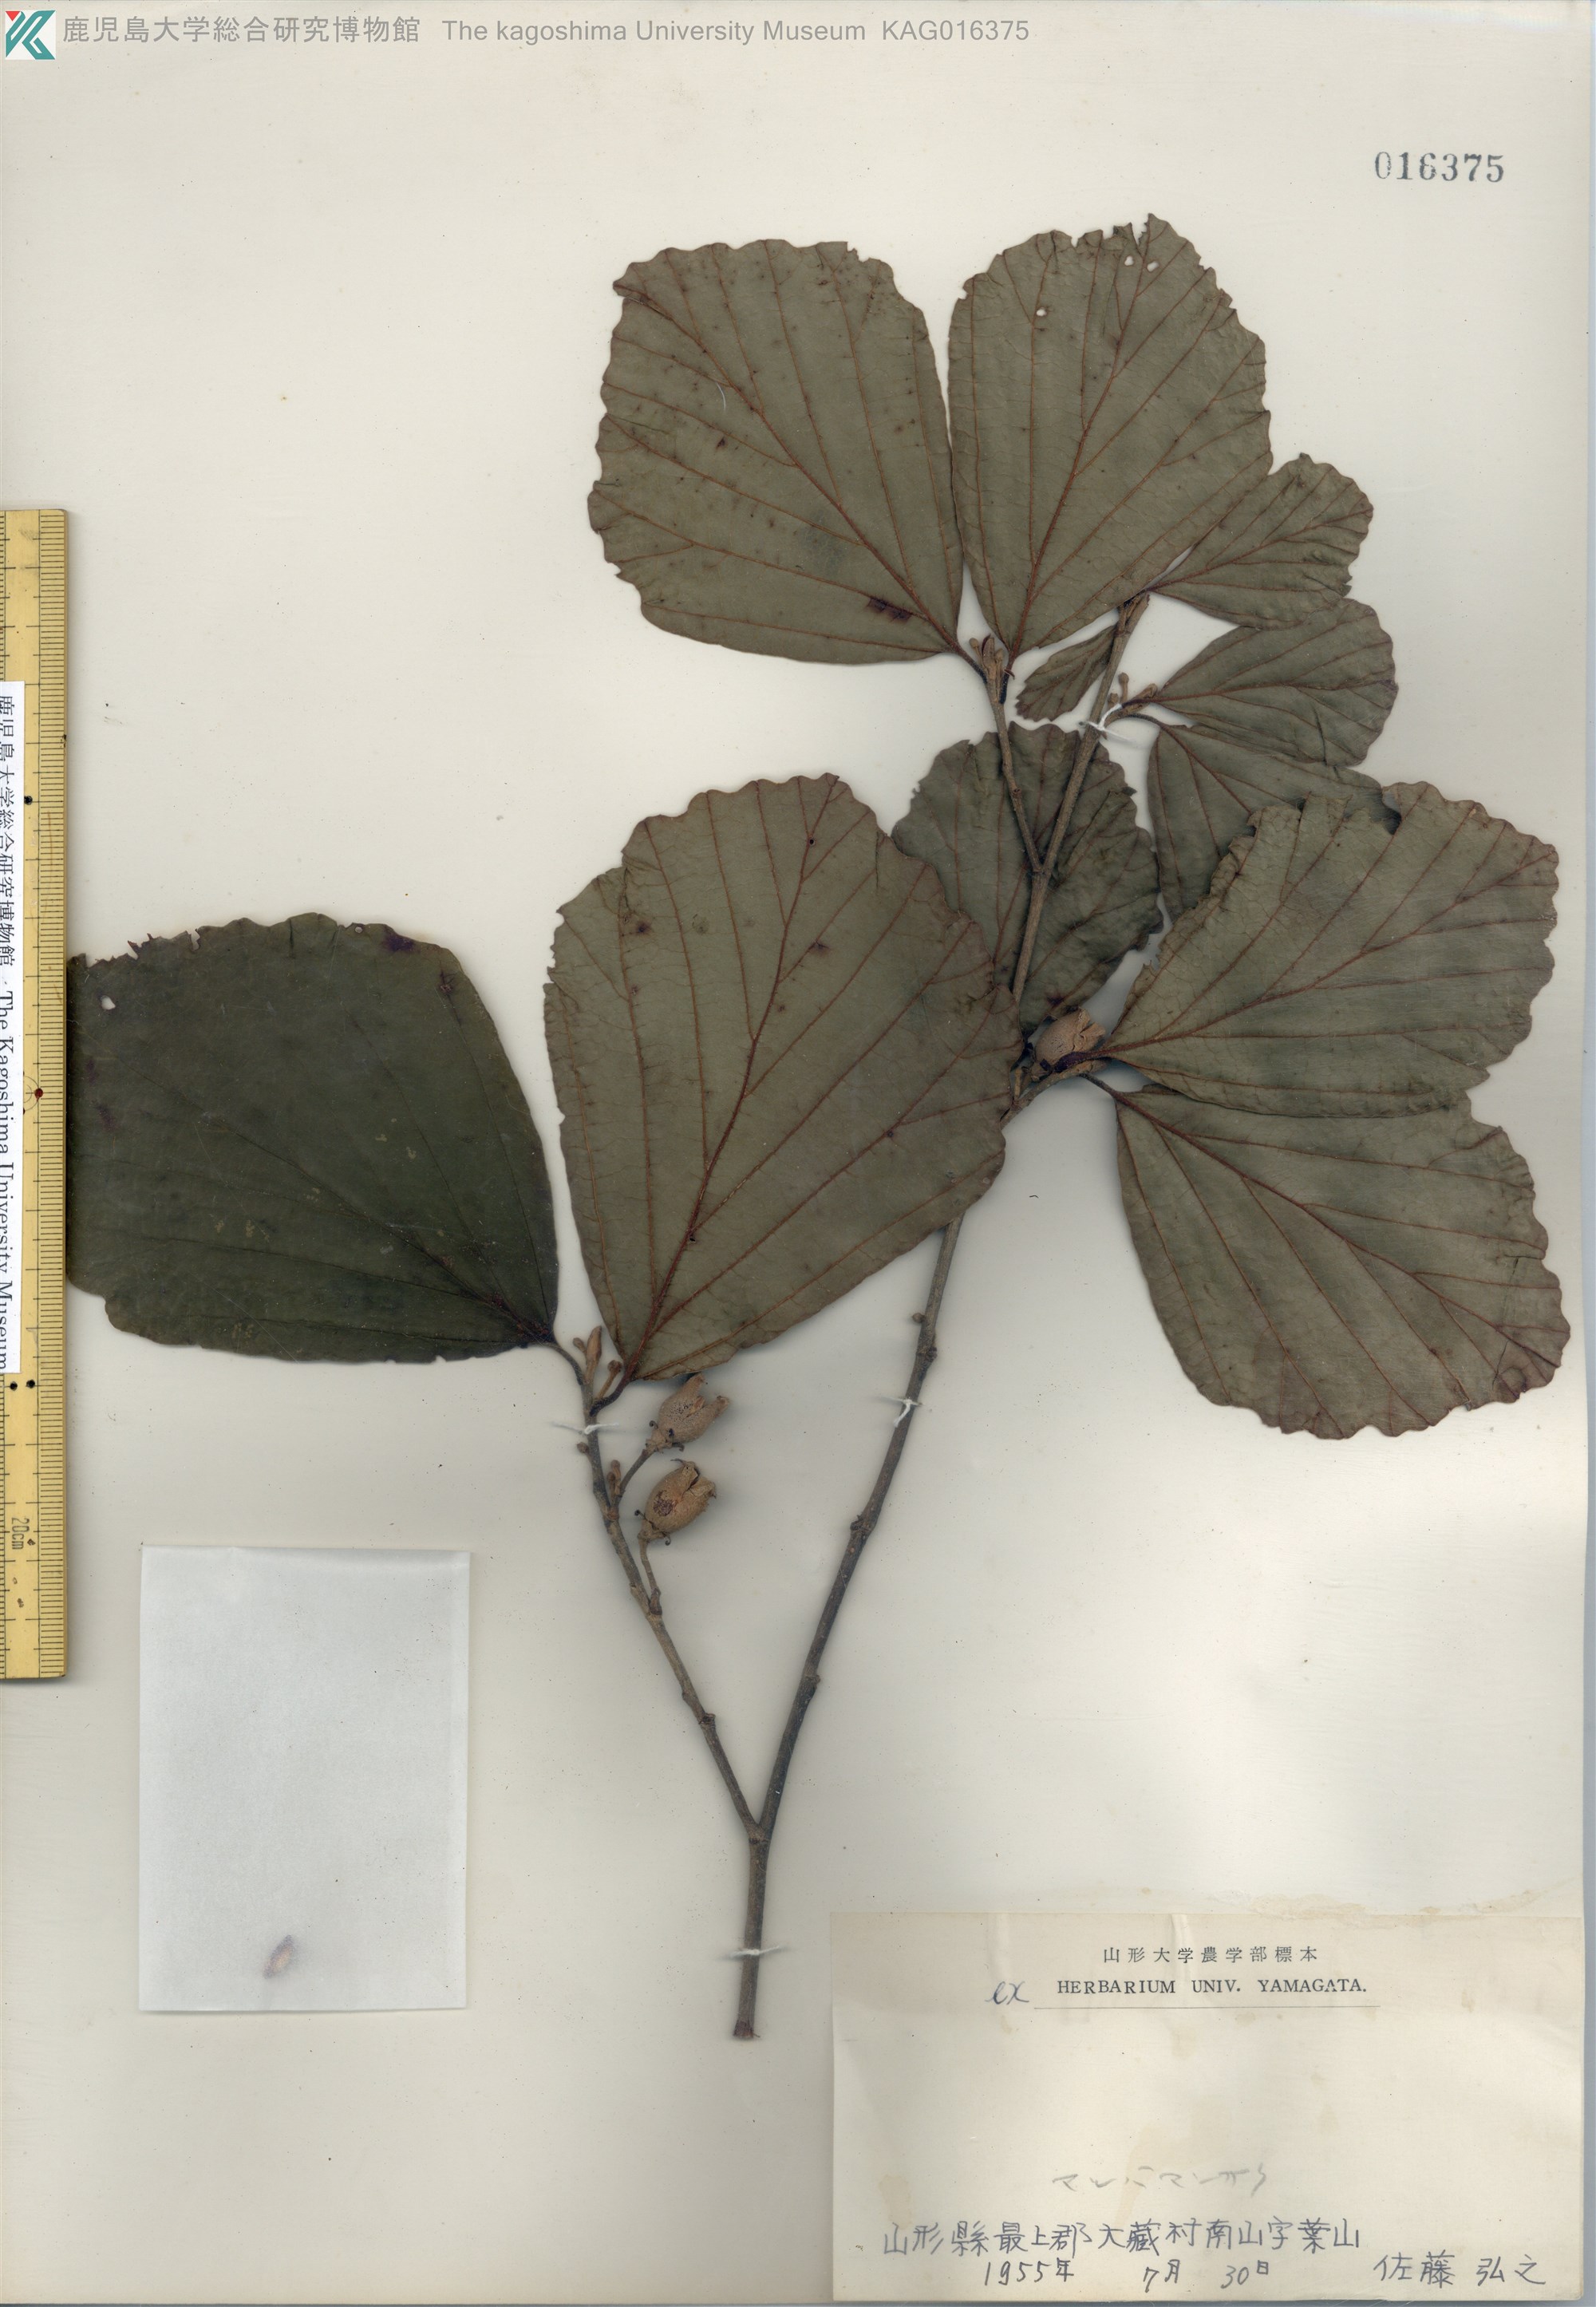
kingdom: Plantae
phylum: Tracheophyta
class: Magnoliopsida
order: Saxifragales
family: Hamamelidaceae
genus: Hamamelis
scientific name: Hamamelis japonica
